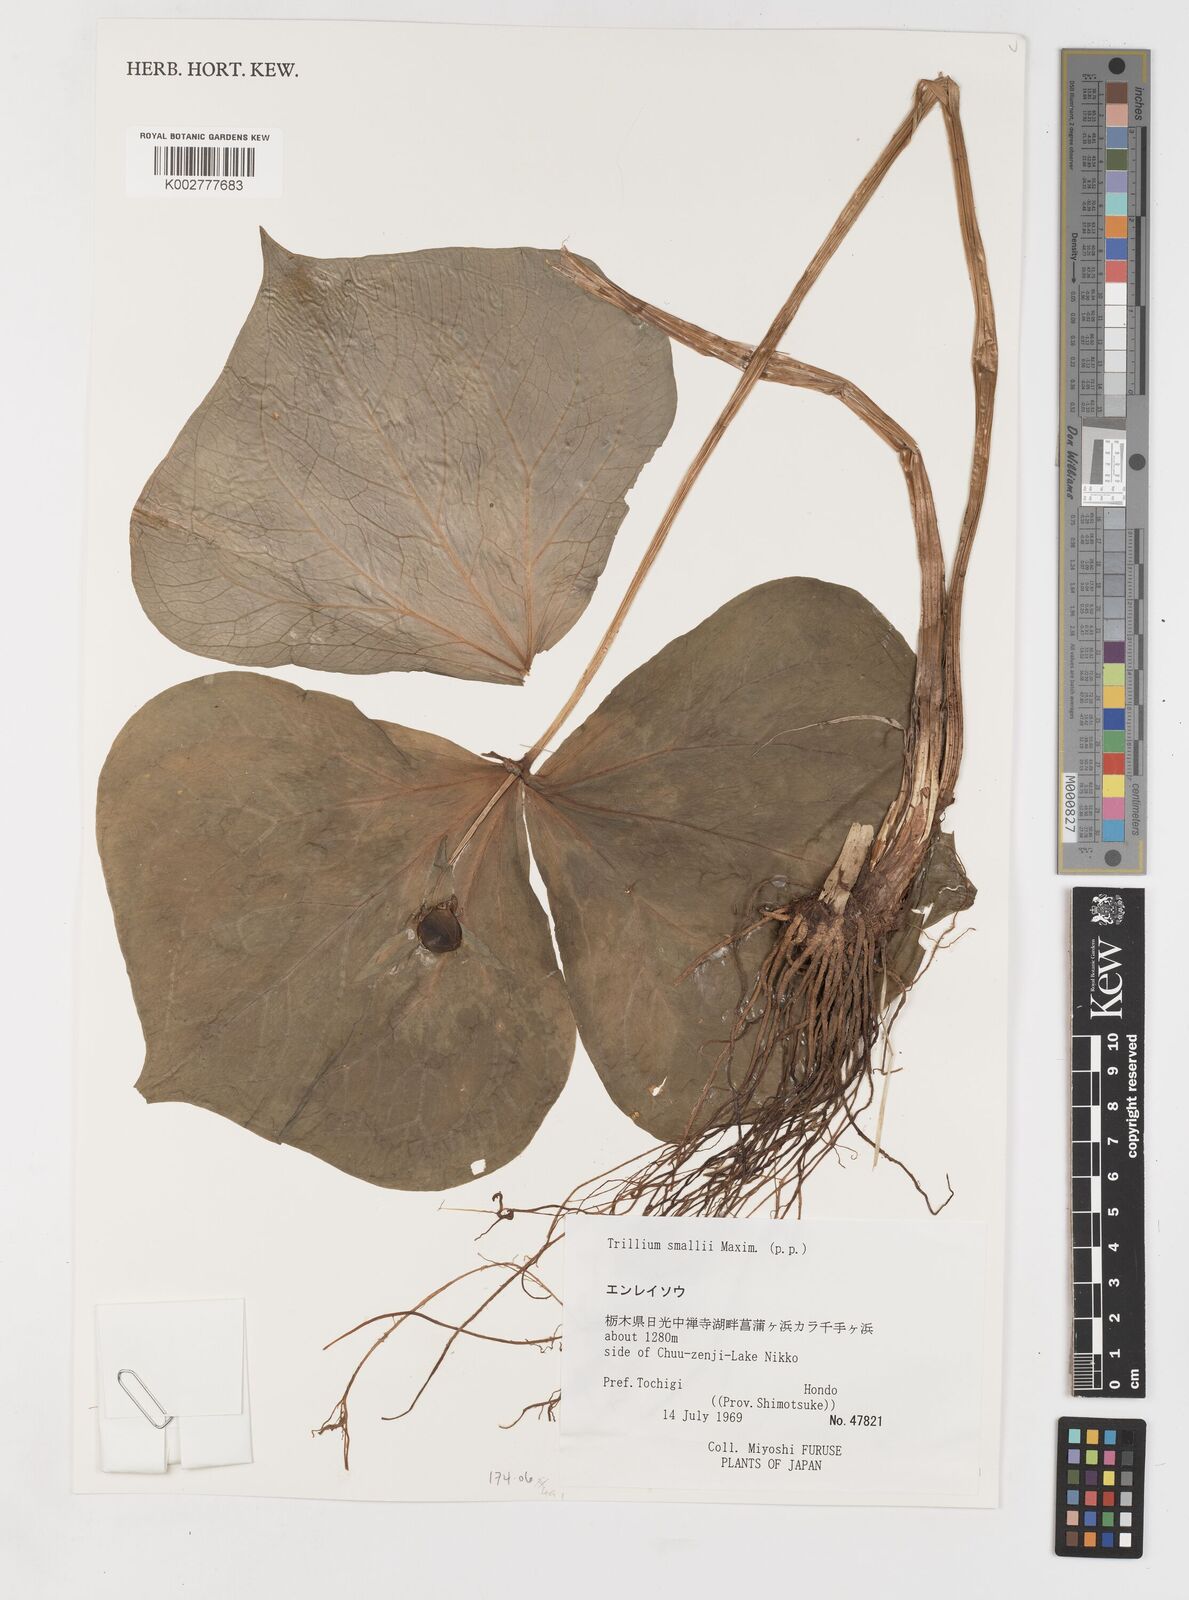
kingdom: Plantae
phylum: Tracheophyta
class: Liliopsida
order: Liliales
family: Melanthiaceae
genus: Trillium
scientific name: Trillium smallii
